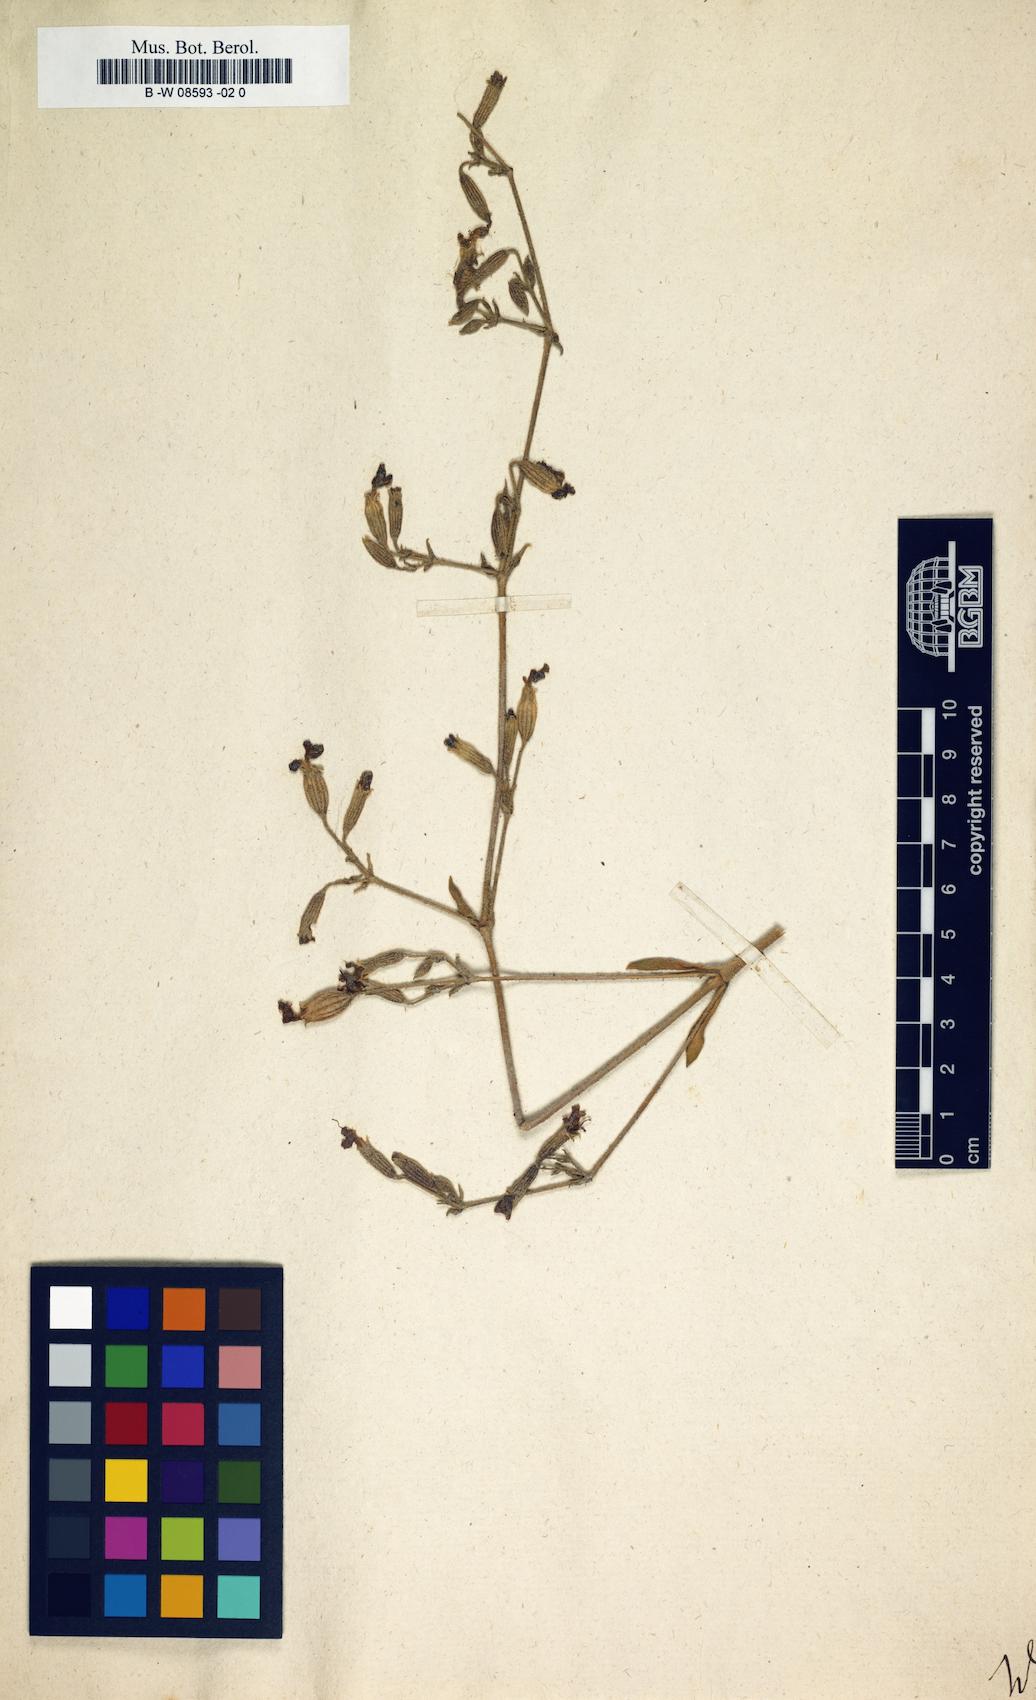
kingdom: Animalia
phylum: Cnidaria
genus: Cucubalus
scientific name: Cucubalus
